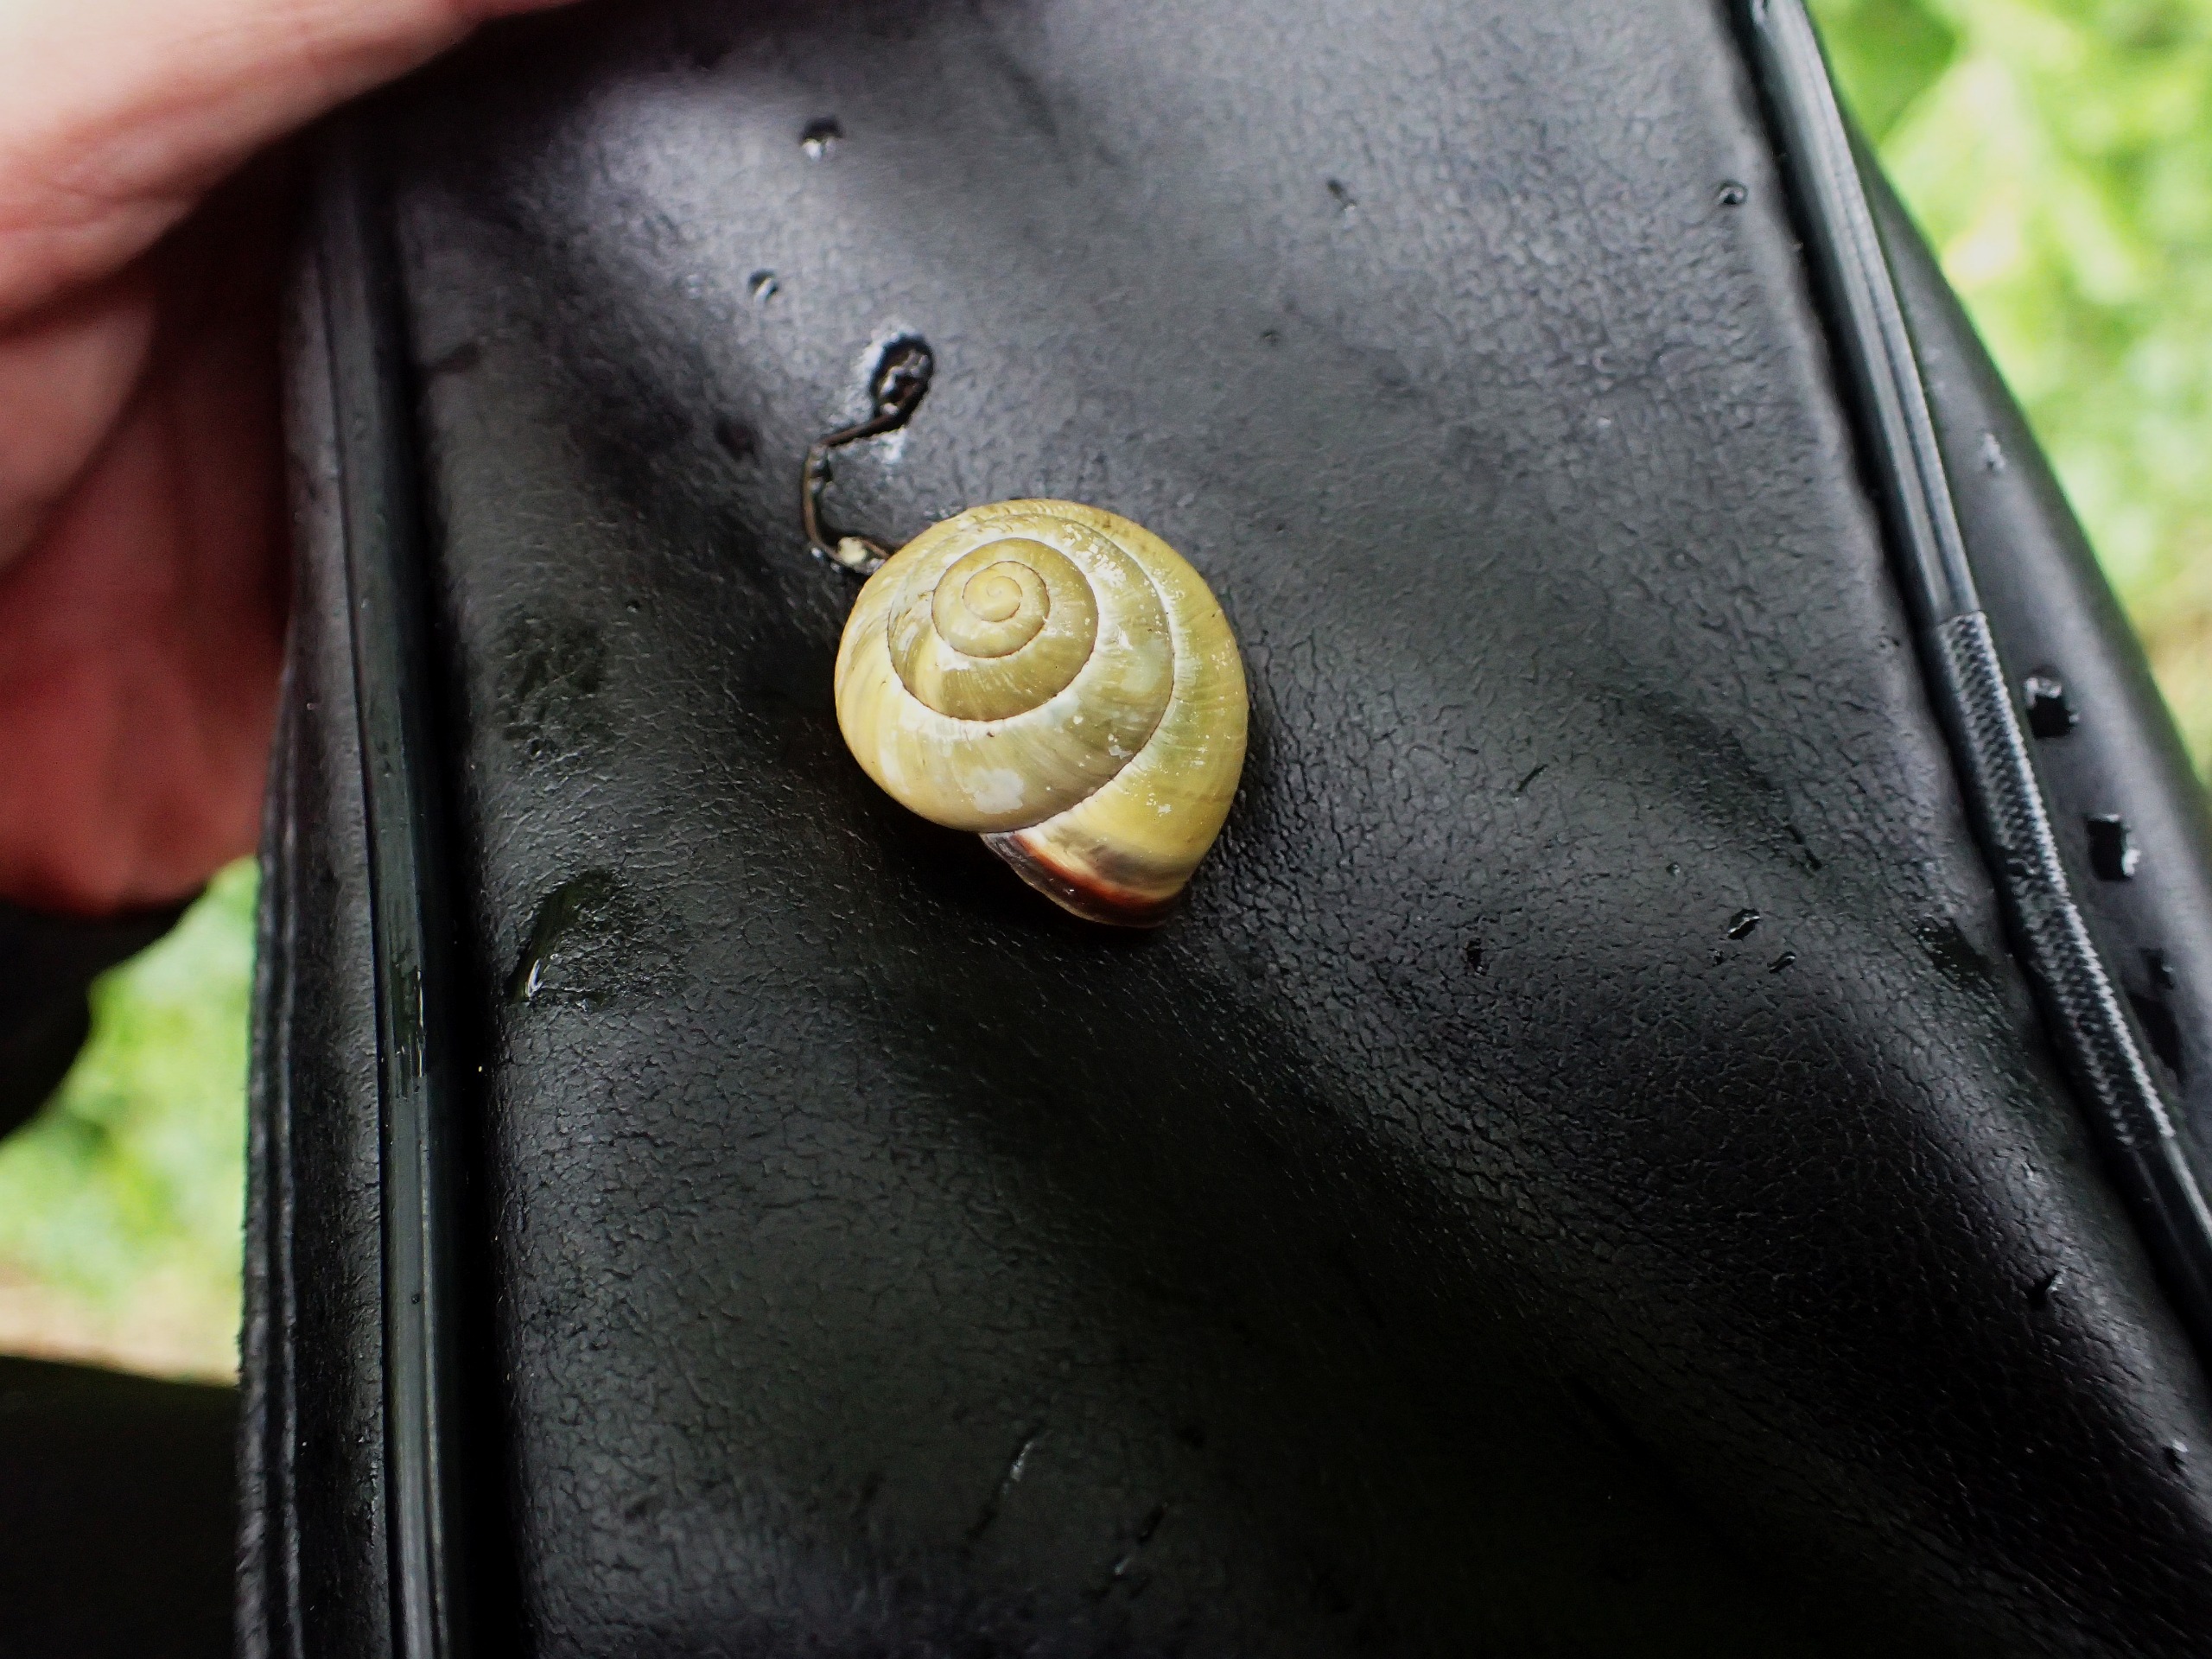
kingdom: Animalia
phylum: Mollusca
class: Gastropoda
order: Stylommatophora
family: Helicidae
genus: Cepaea
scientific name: Cepaea nemoralis
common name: Lundsnegl
